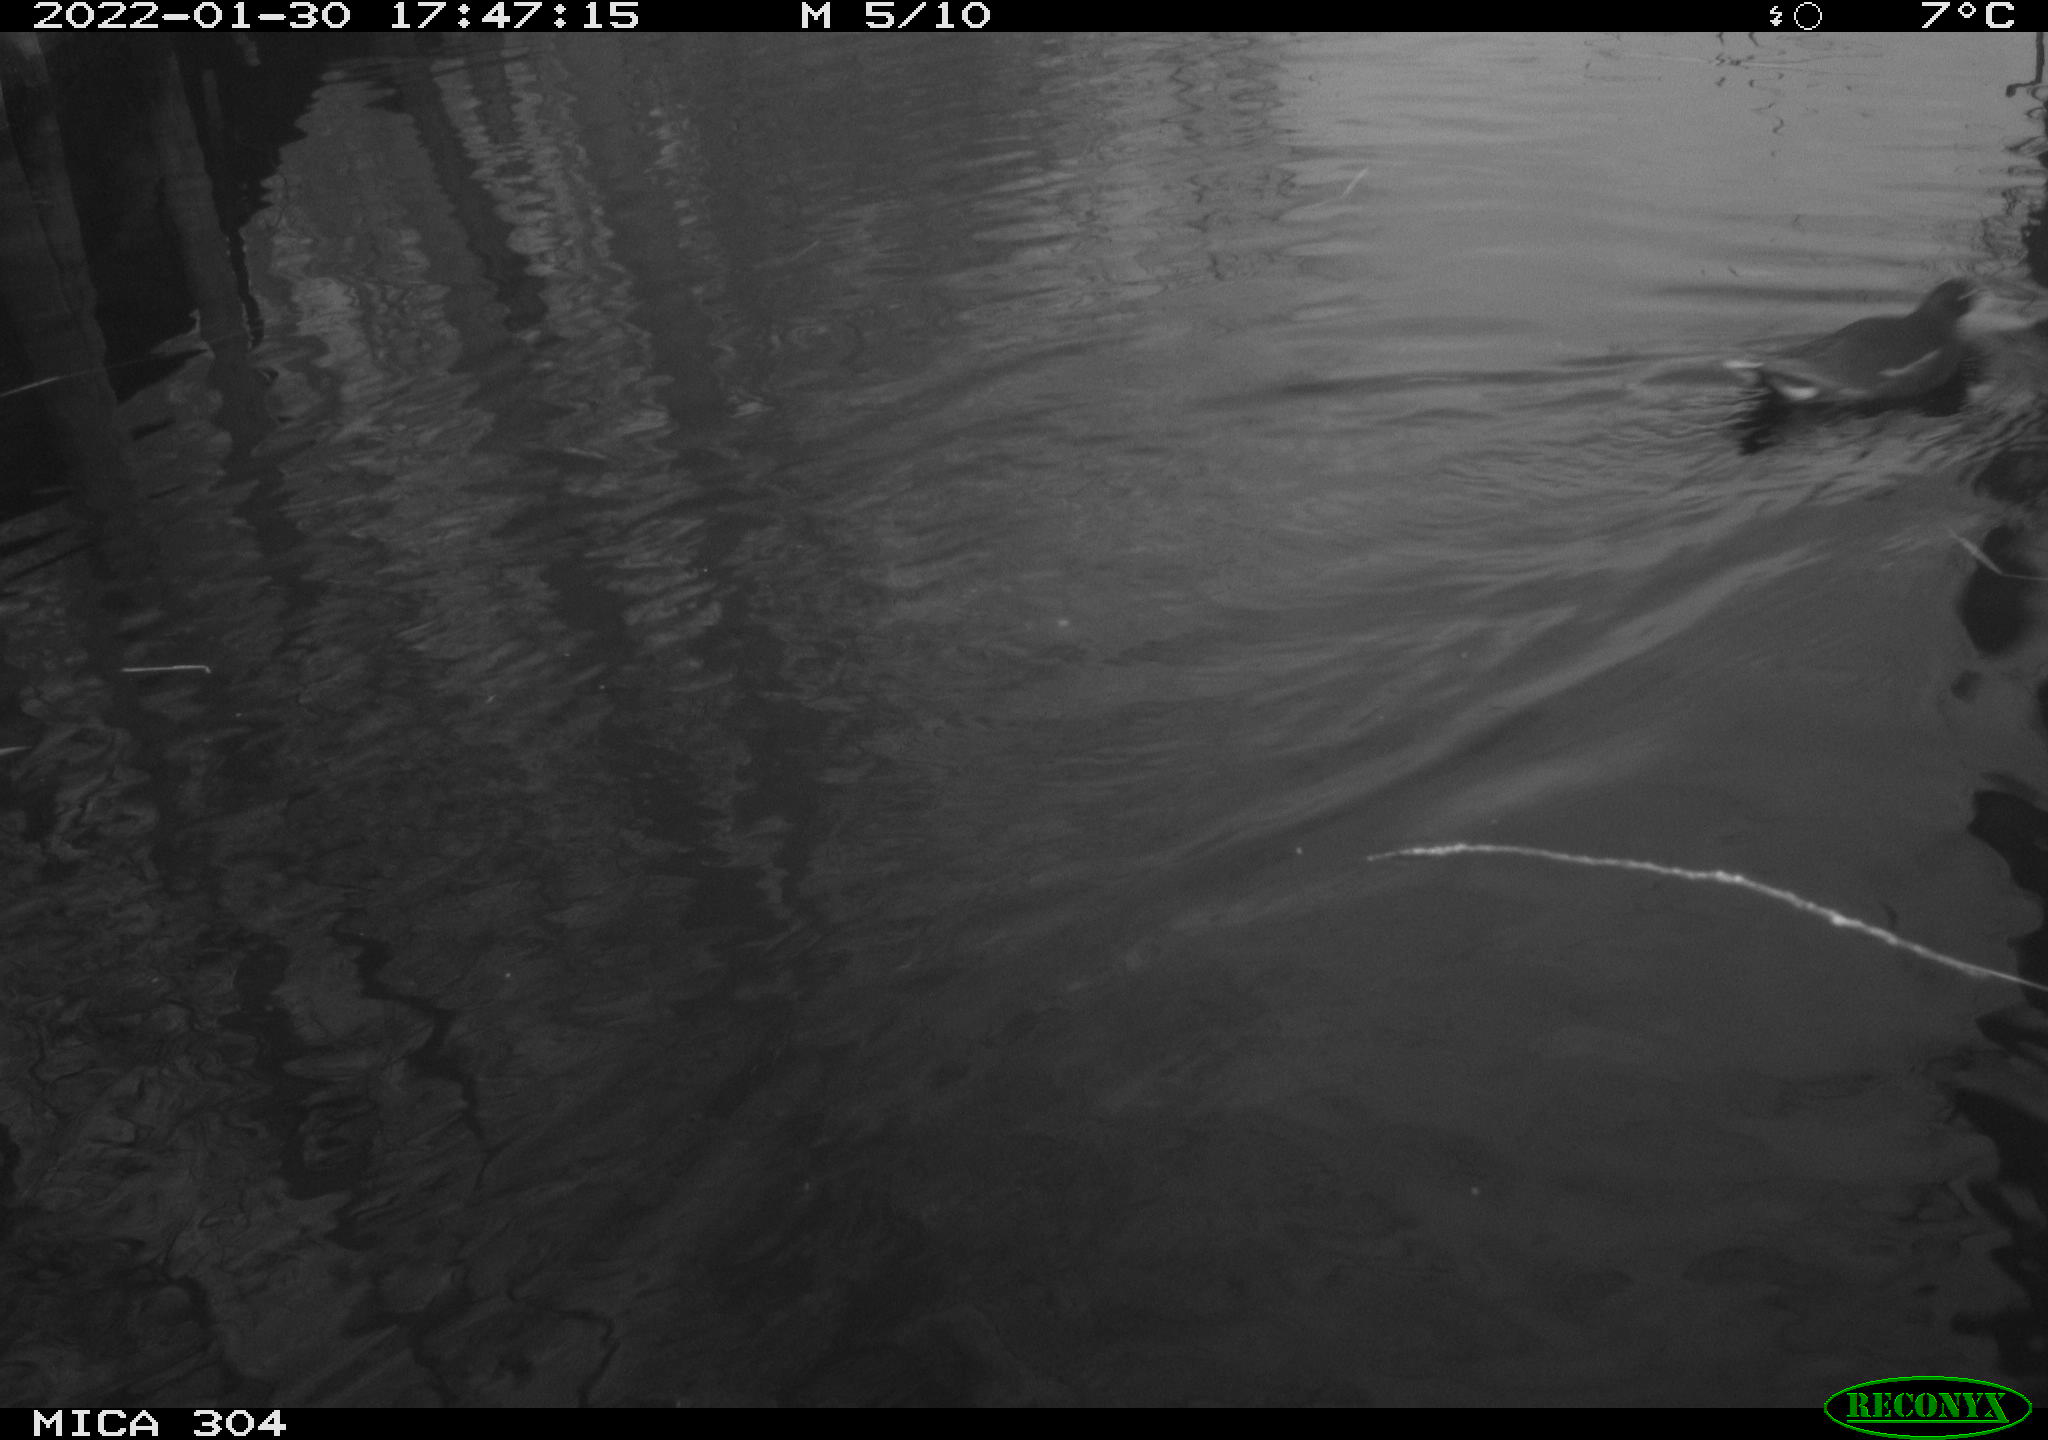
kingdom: Animalia
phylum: Chordata
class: Aves
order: Gruiformes
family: Rallidae
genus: Gallinula
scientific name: Gallinula chloropus
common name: Common moorhen
